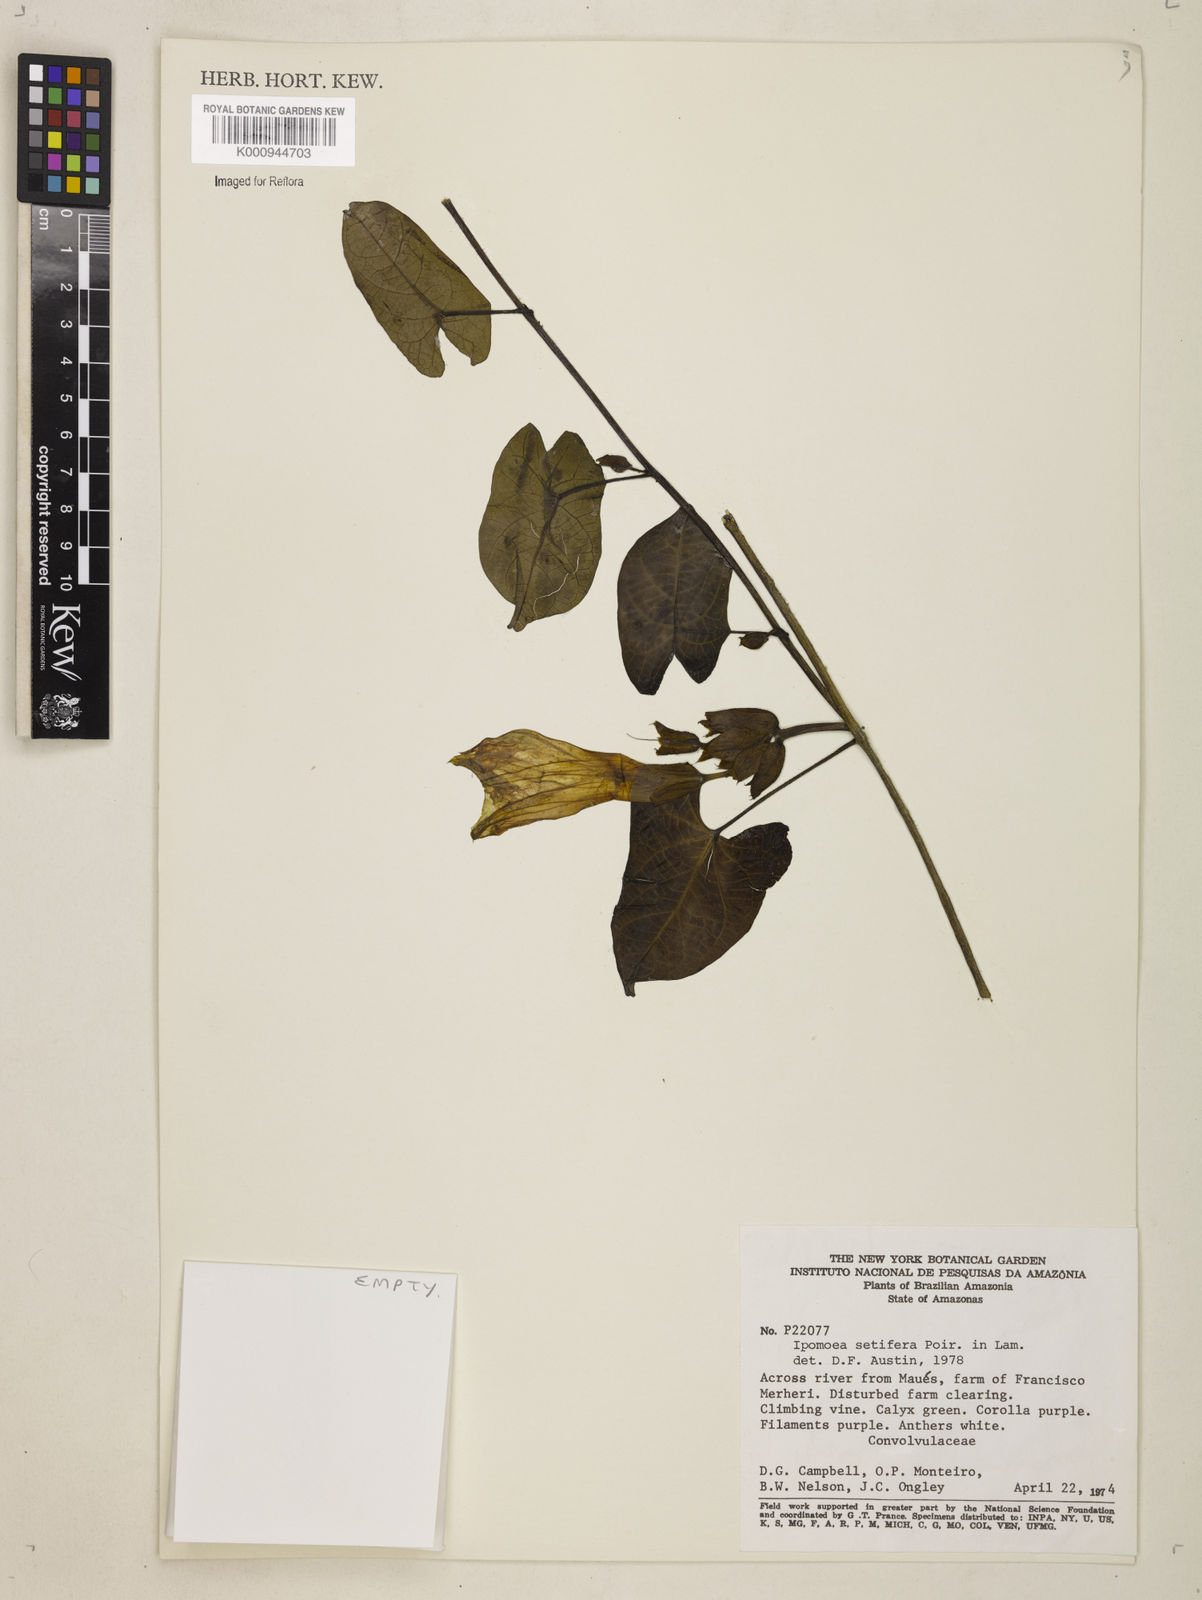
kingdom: Plantae
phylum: Tracheophyta
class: Magnoliopsida
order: Solanales
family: Convolvulaceae
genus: Ipomoea
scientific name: Ipomoea setifera
